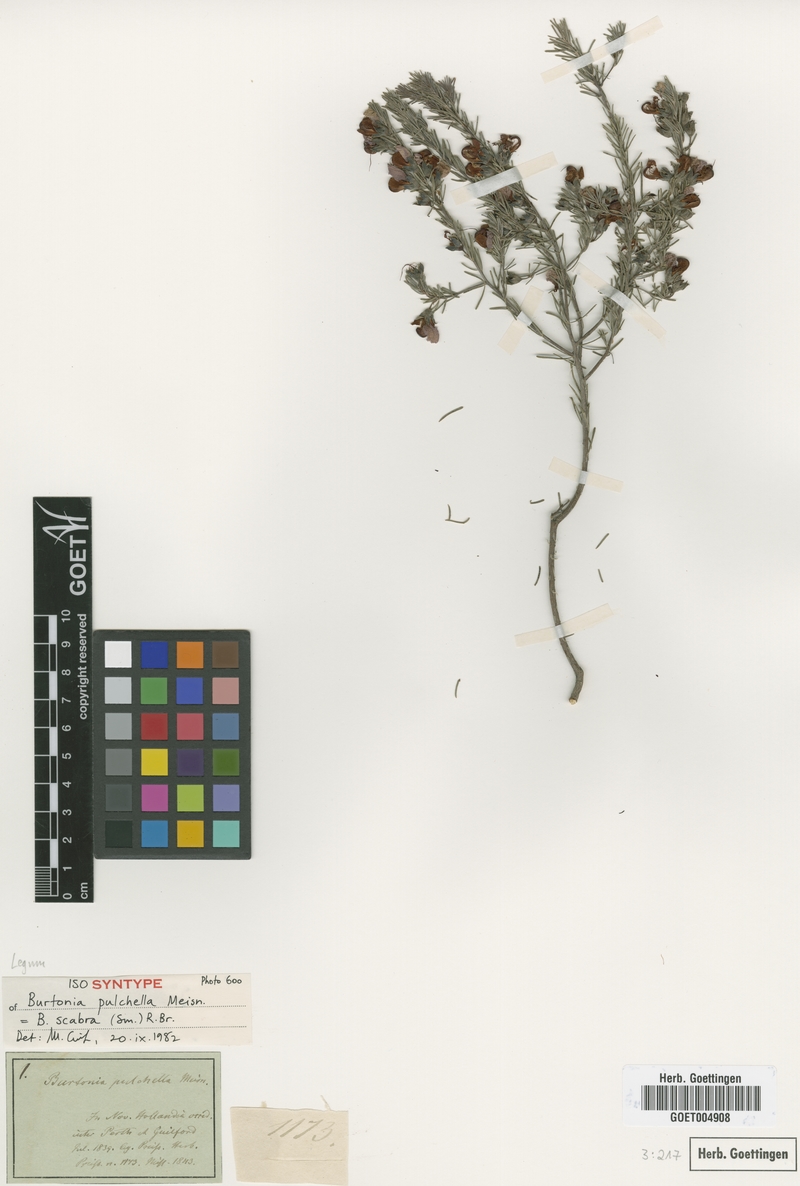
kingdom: Plantae
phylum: Tracheophyta
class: Magnoliopsida
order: Fabales
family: Fabaceae
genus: Gompholobium
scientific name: Gompholobium scabrum
